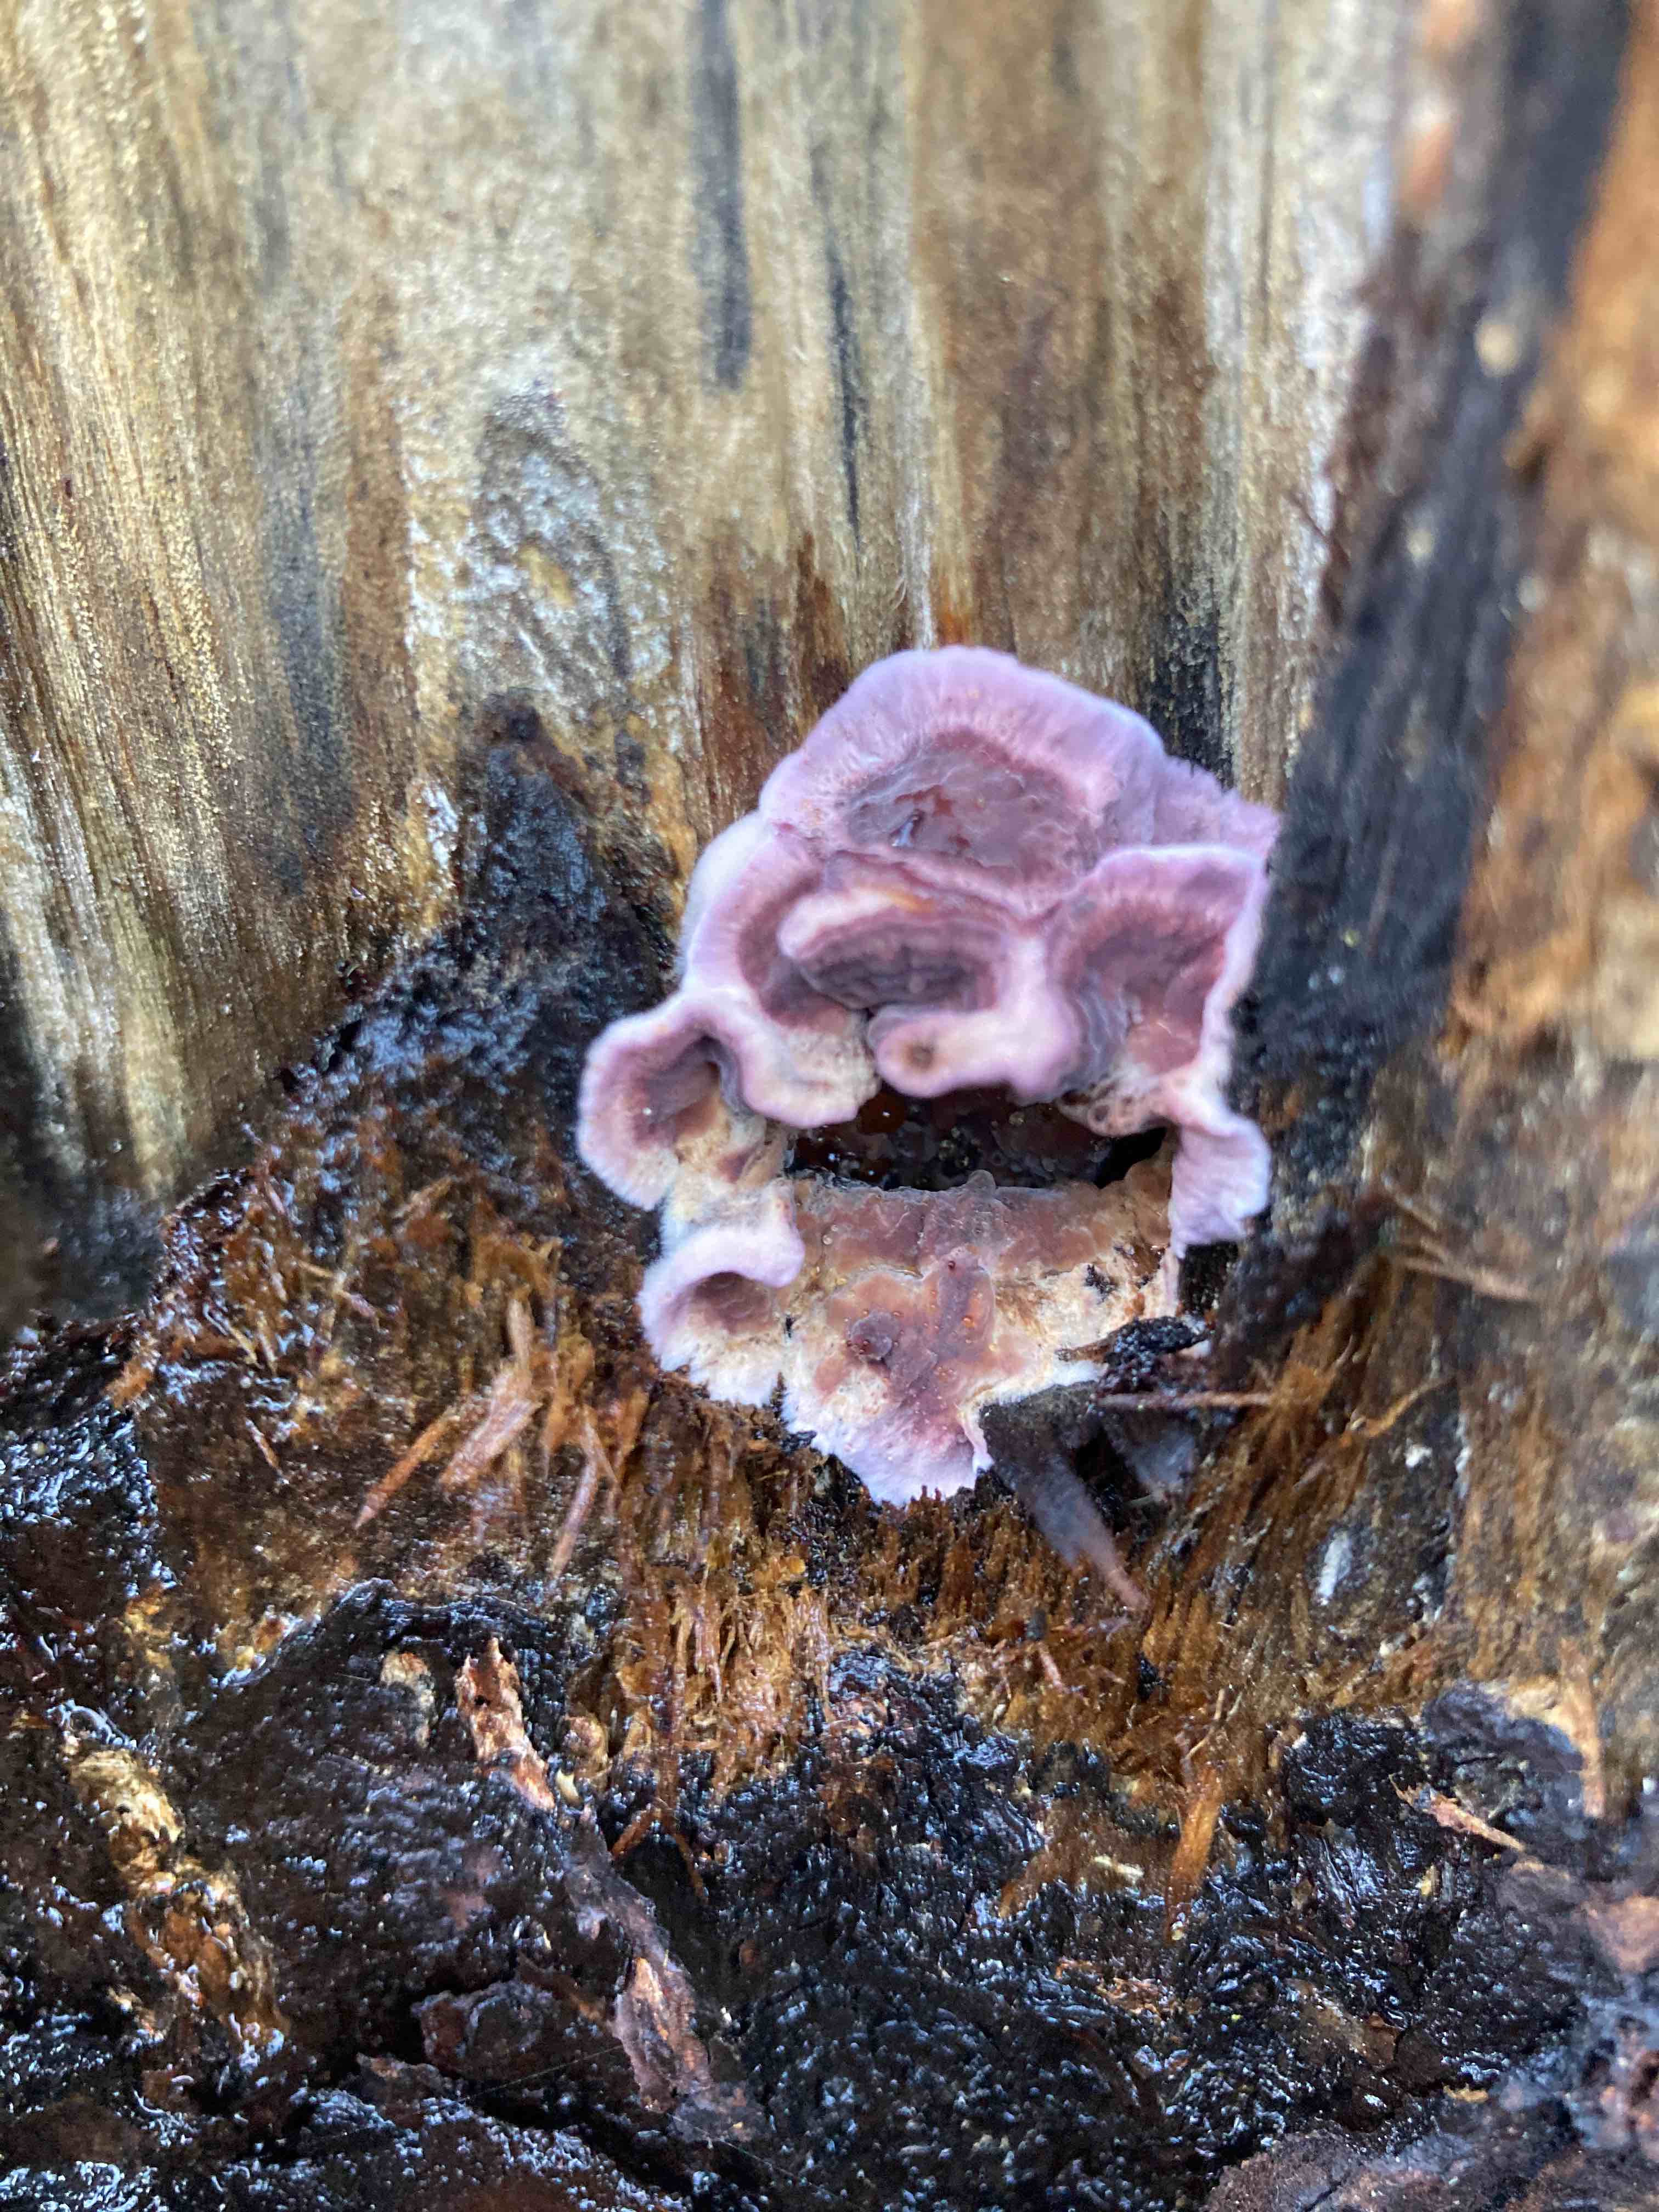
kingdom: Fungi
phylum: Basidiomycota
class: Agaricomycetes
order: Agaricales
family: Cyphellaceae
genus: Chondrostereum
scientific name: Chondrostereum purpureum
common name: purpurlædersvamp
